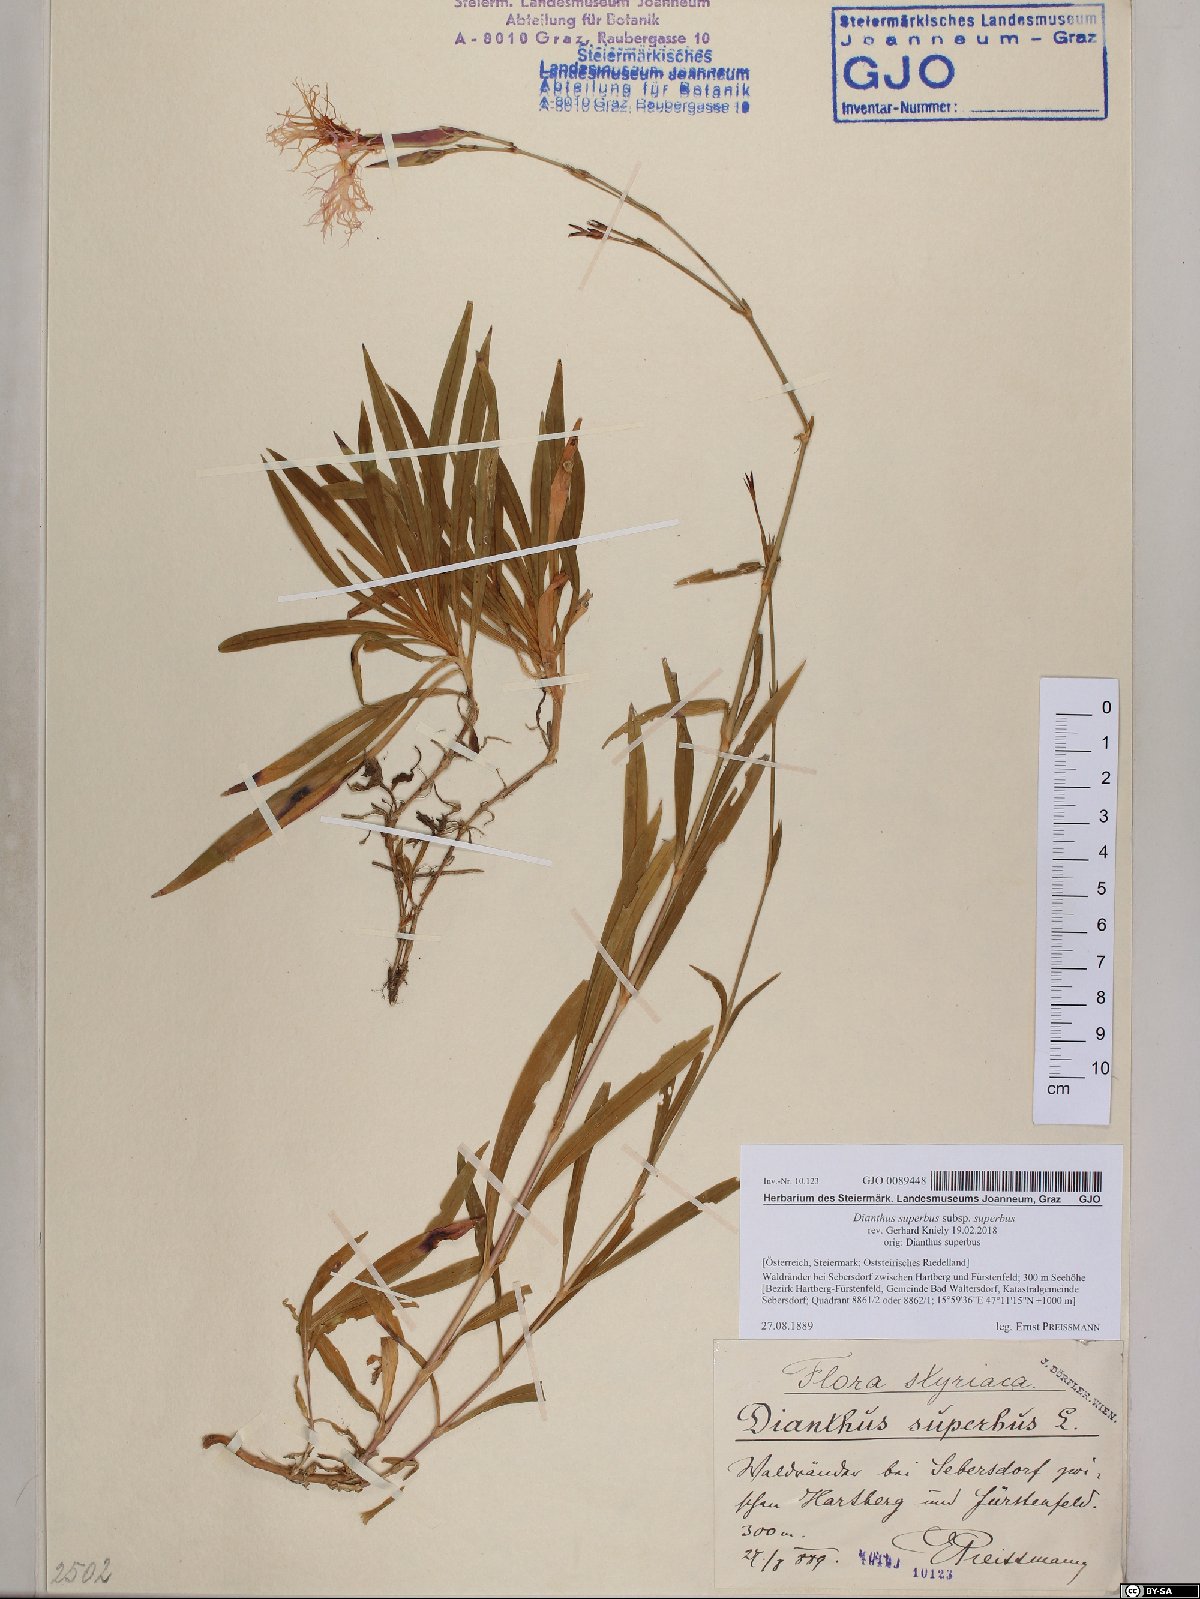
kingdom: Plantae
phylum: Tracheophyta
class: Magnoliopsida
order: Caryophyllales
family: Caryophyllaceae
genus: Dianthus
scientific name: Dianthus superbus
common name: Fringed pink
